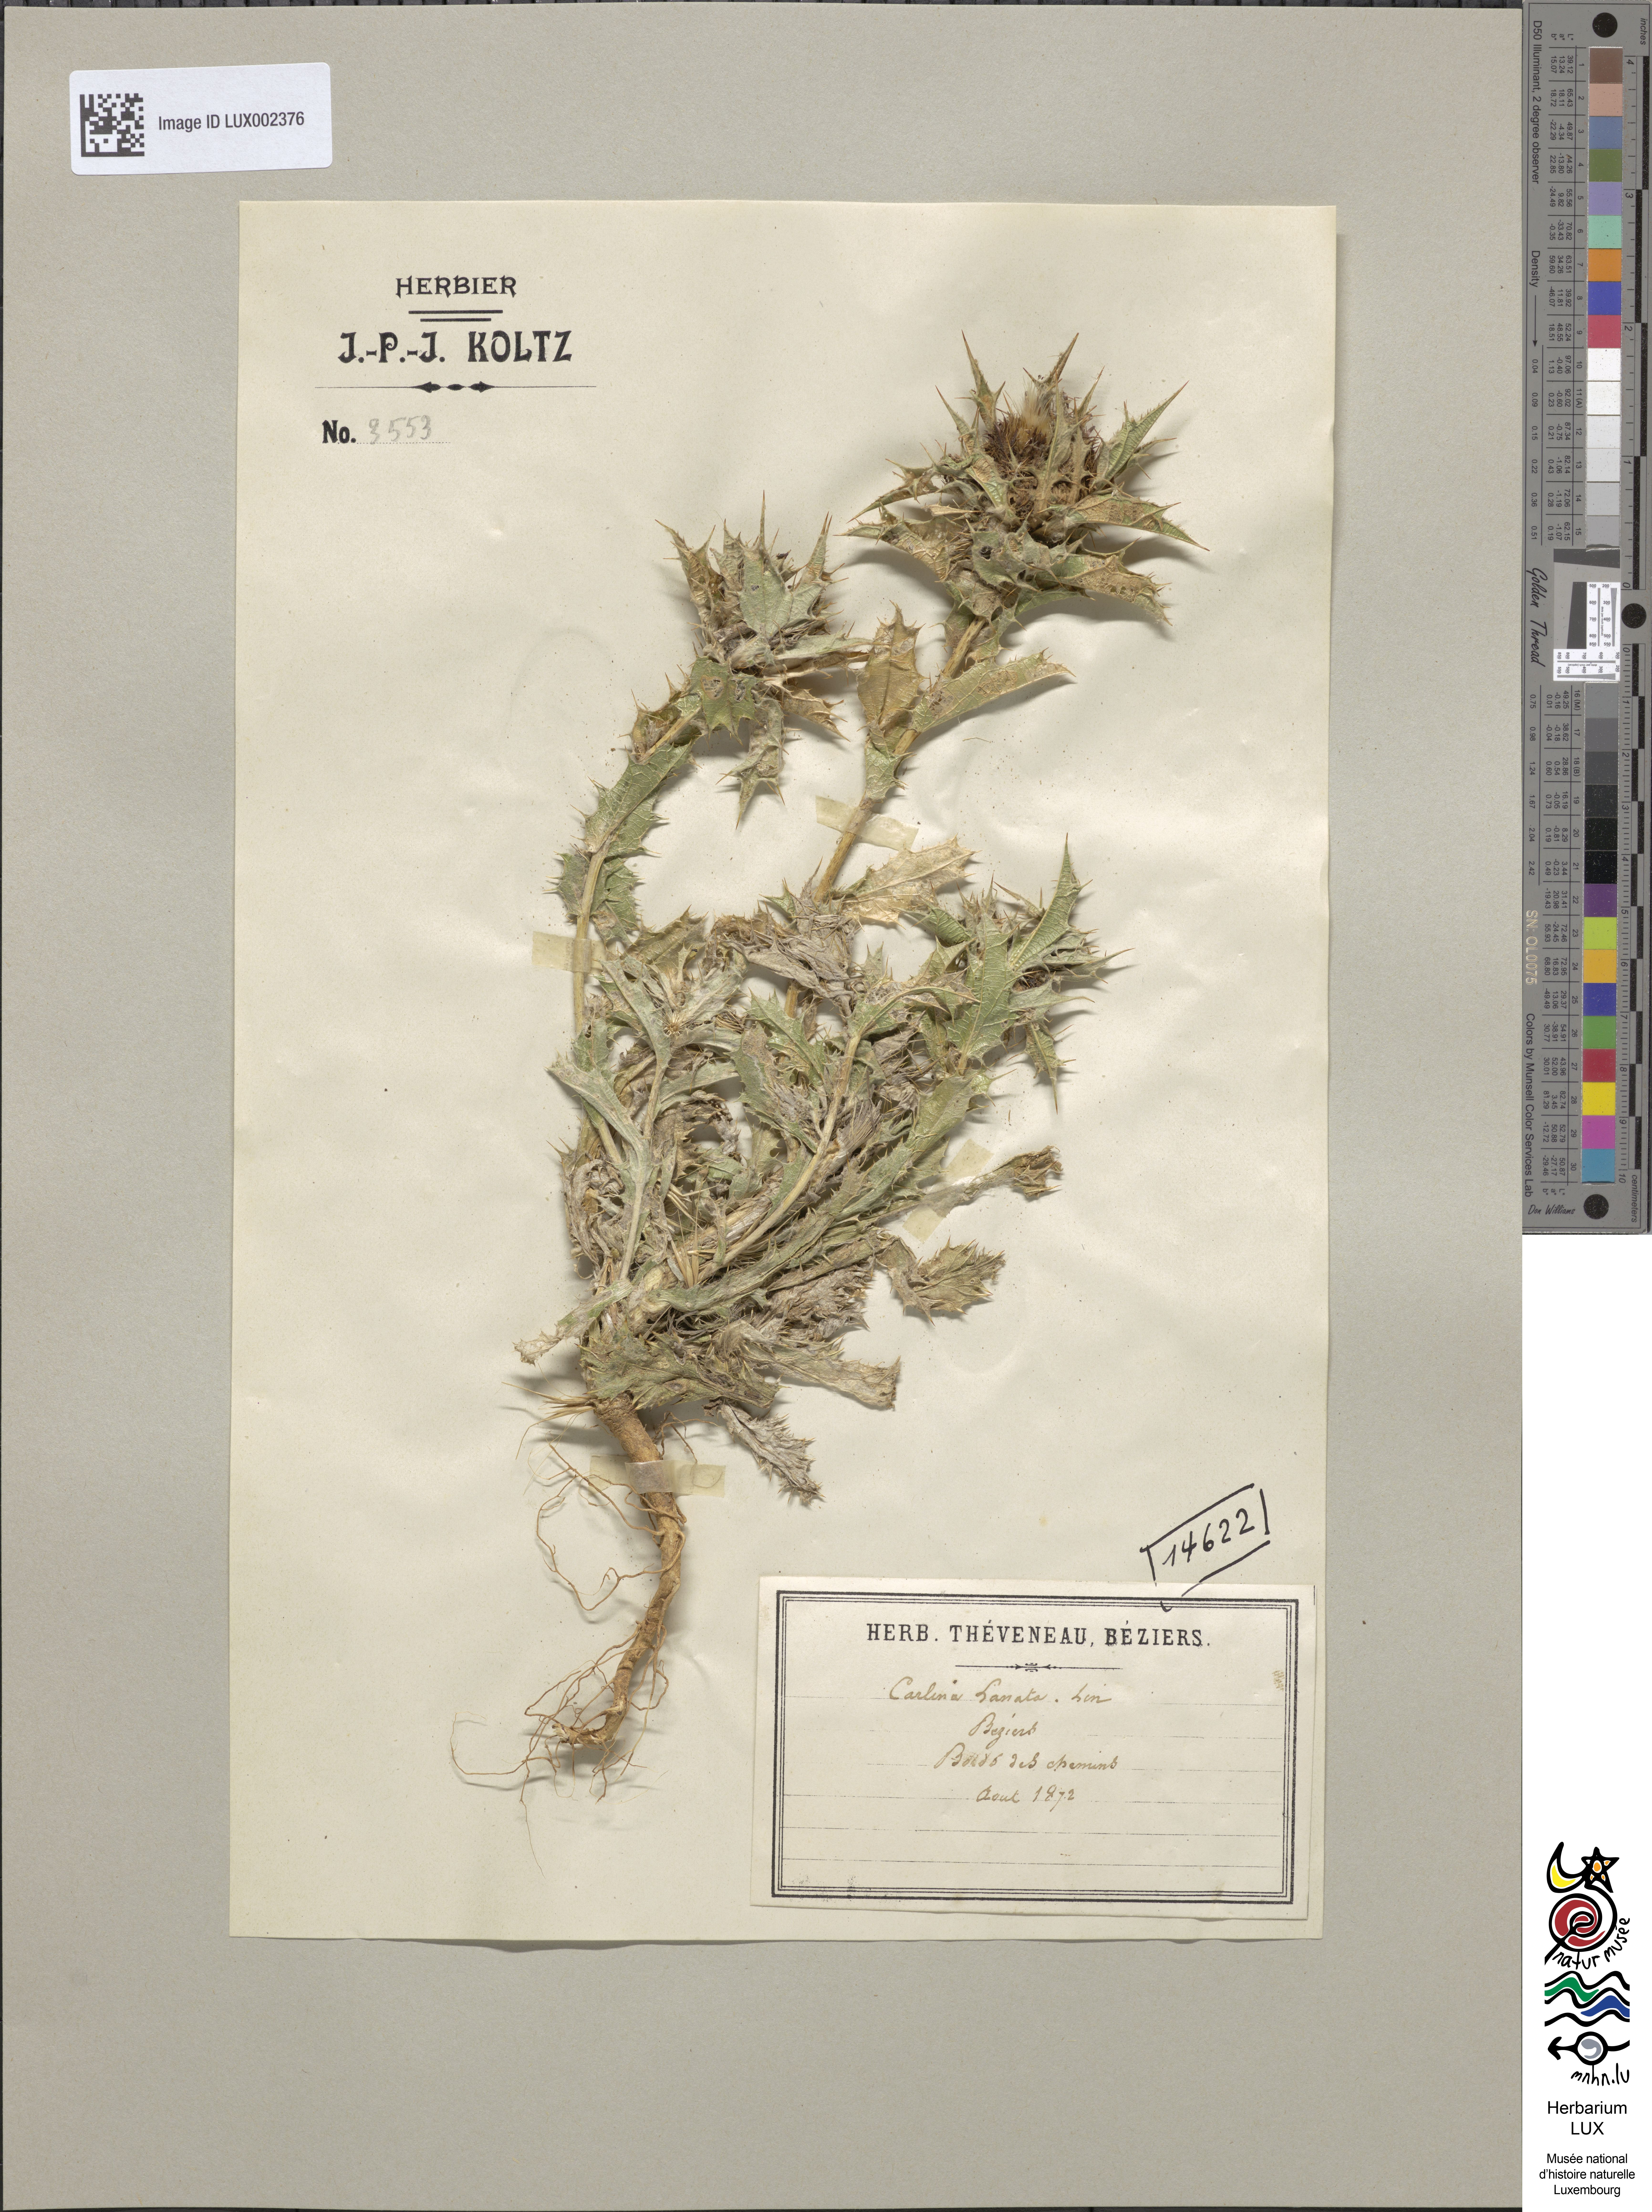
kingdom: Plantae
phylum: Tracheophyta
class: Magnoliopsida
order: Asterales
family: Asteraceae
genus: Carlina
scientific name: Carlina lanata
